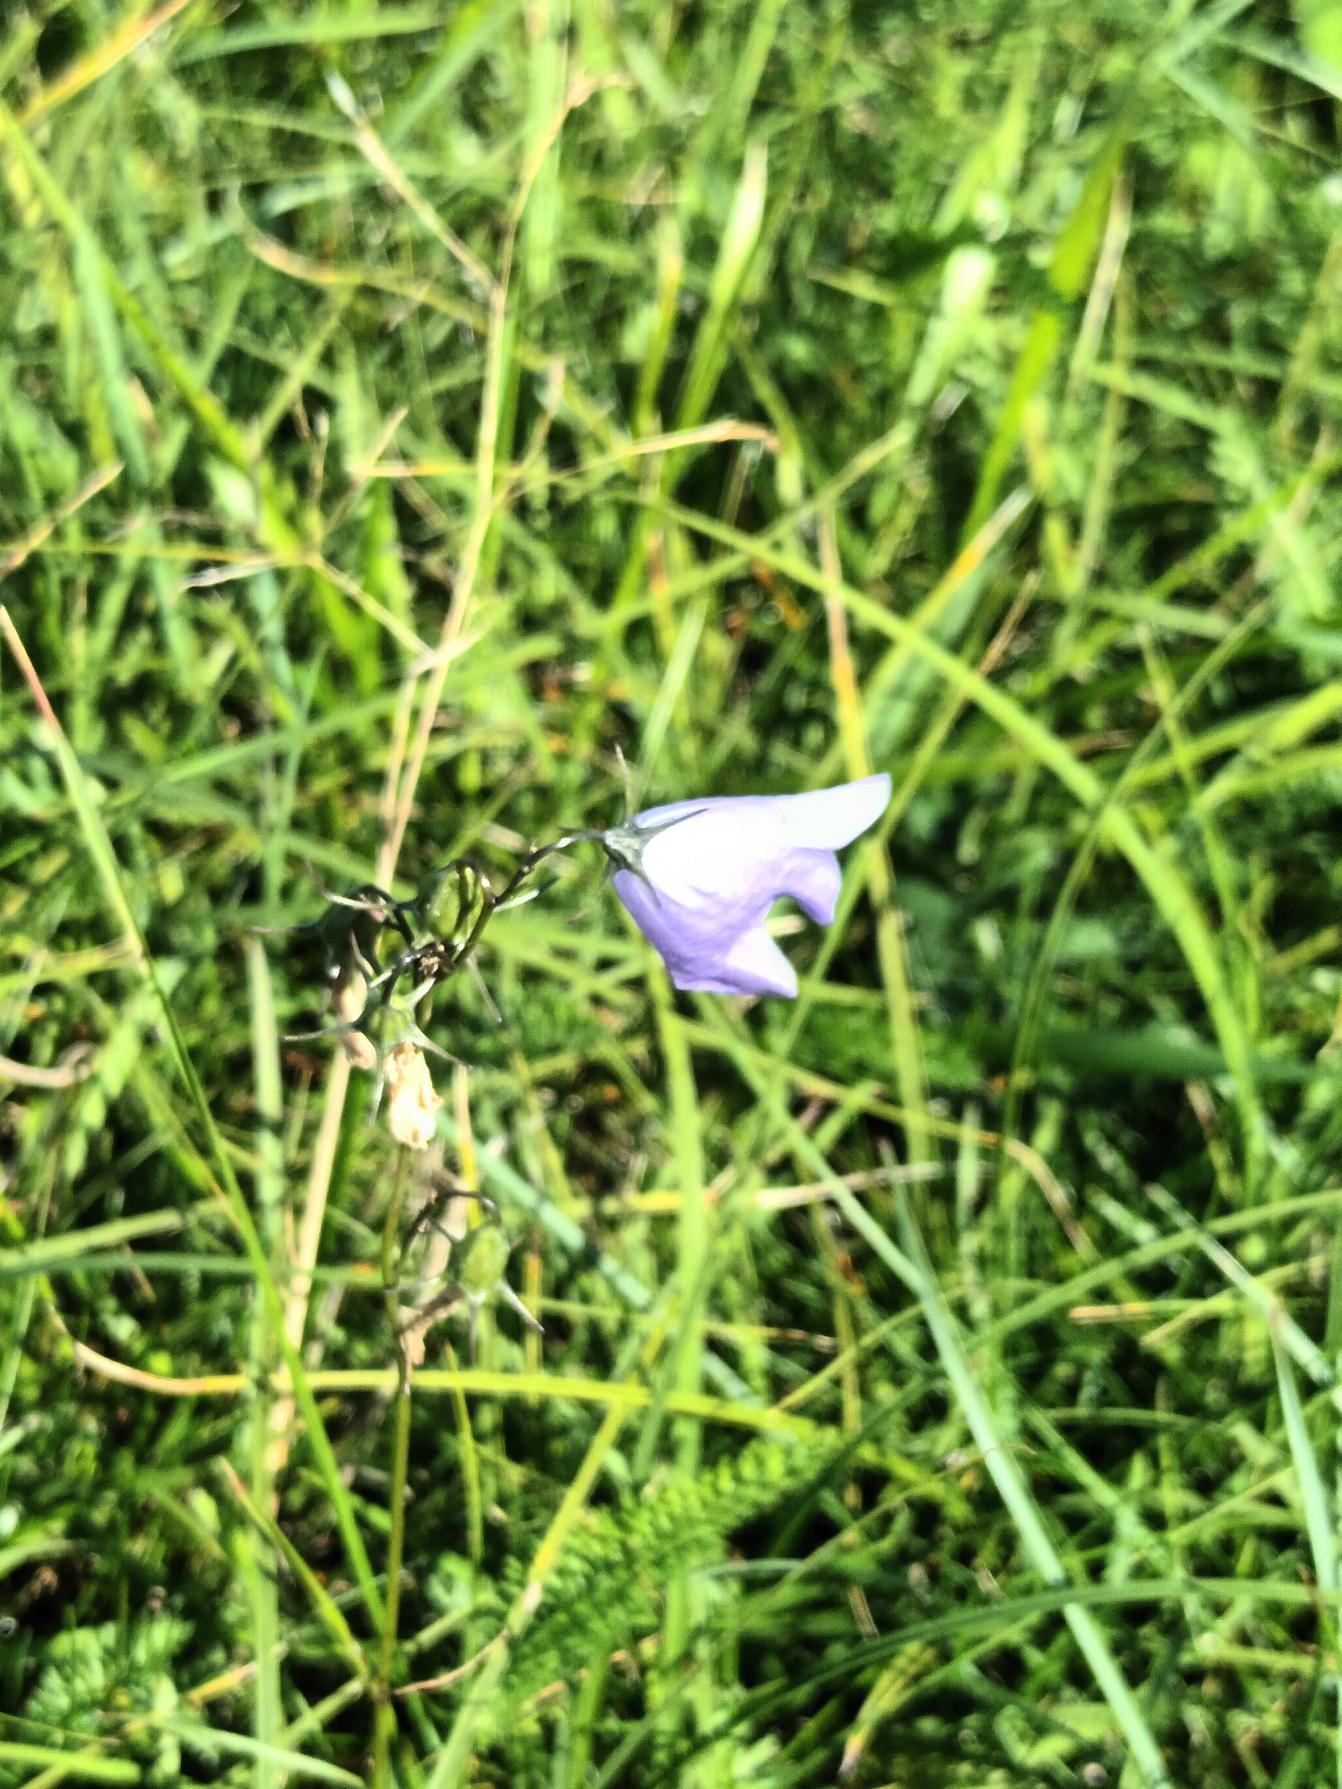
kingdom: Plantae
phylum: Tracheophyta
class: Magnoliopsida
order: Asterales
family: Campanulaceae
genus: Campanula
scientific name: Campanula rotundifolia
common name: Liden klokke
